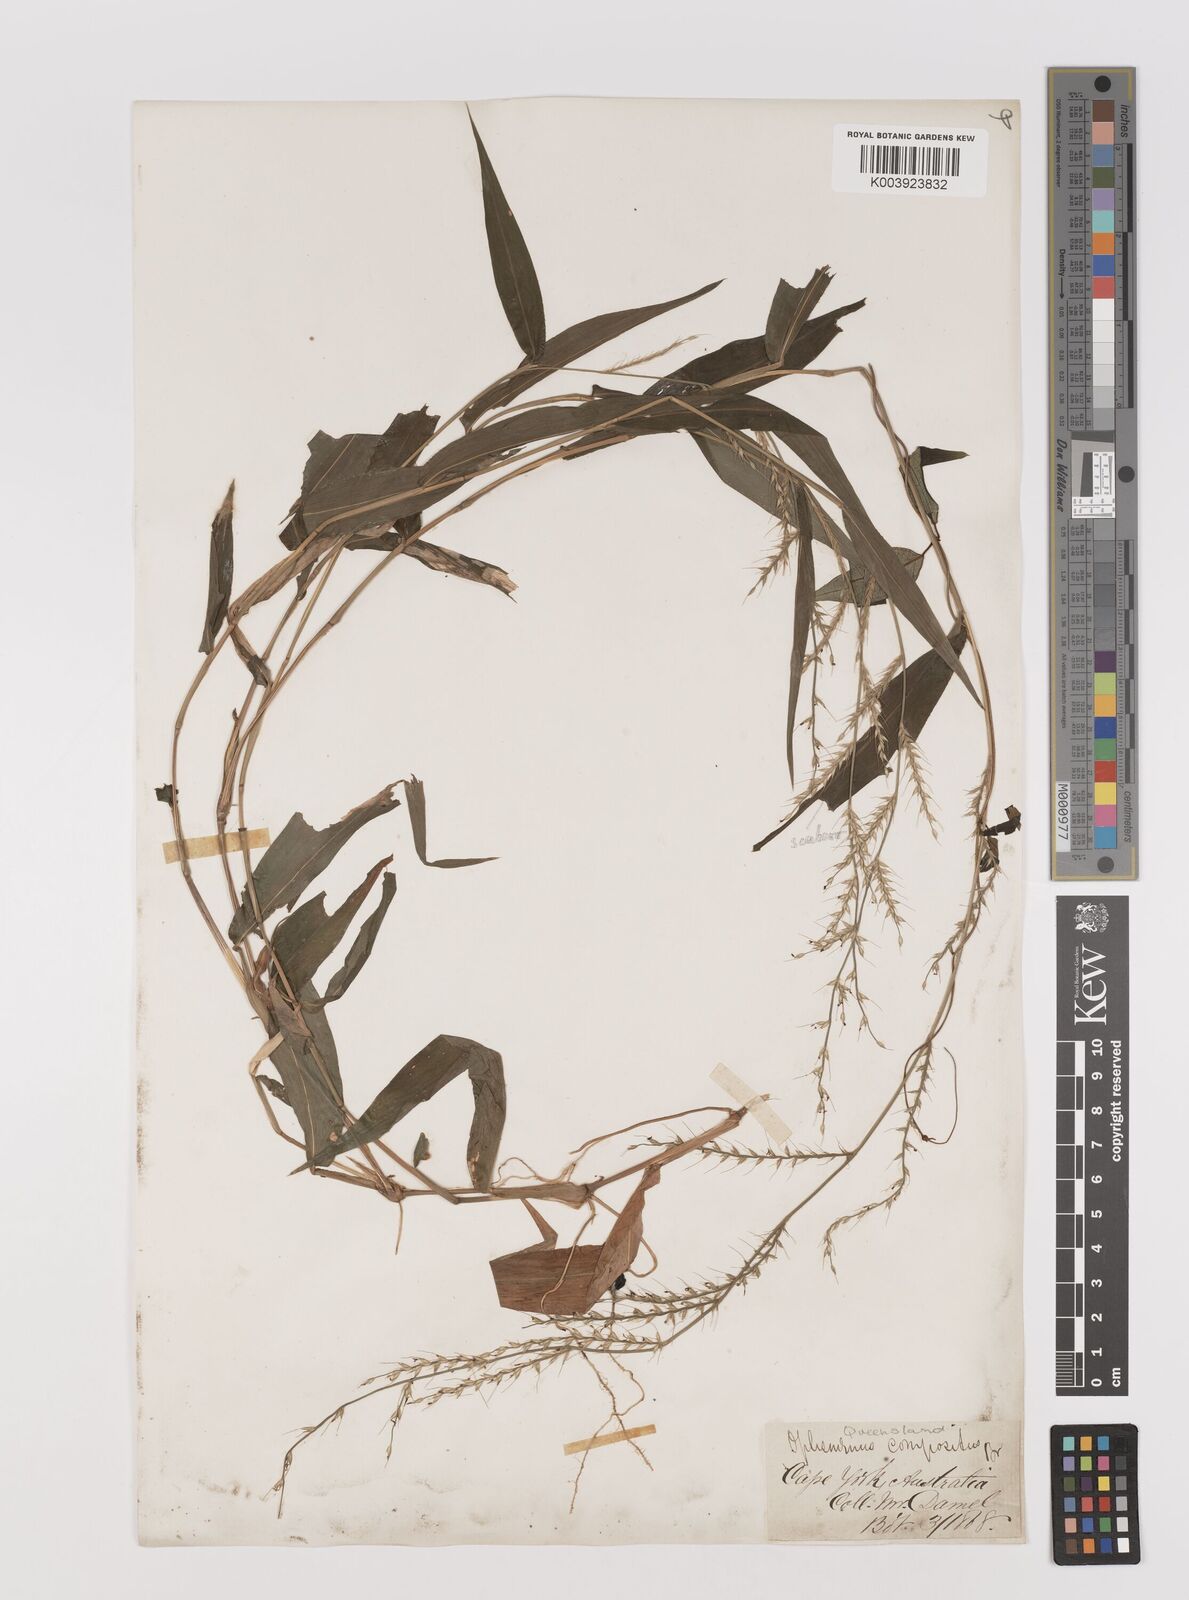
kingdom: Plantae
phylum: Tracheophyta
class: Liliopsida
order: Poales
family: Poaceae
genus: Oplismenus
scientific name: Oplismenus compositus
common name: Running mountain grass
